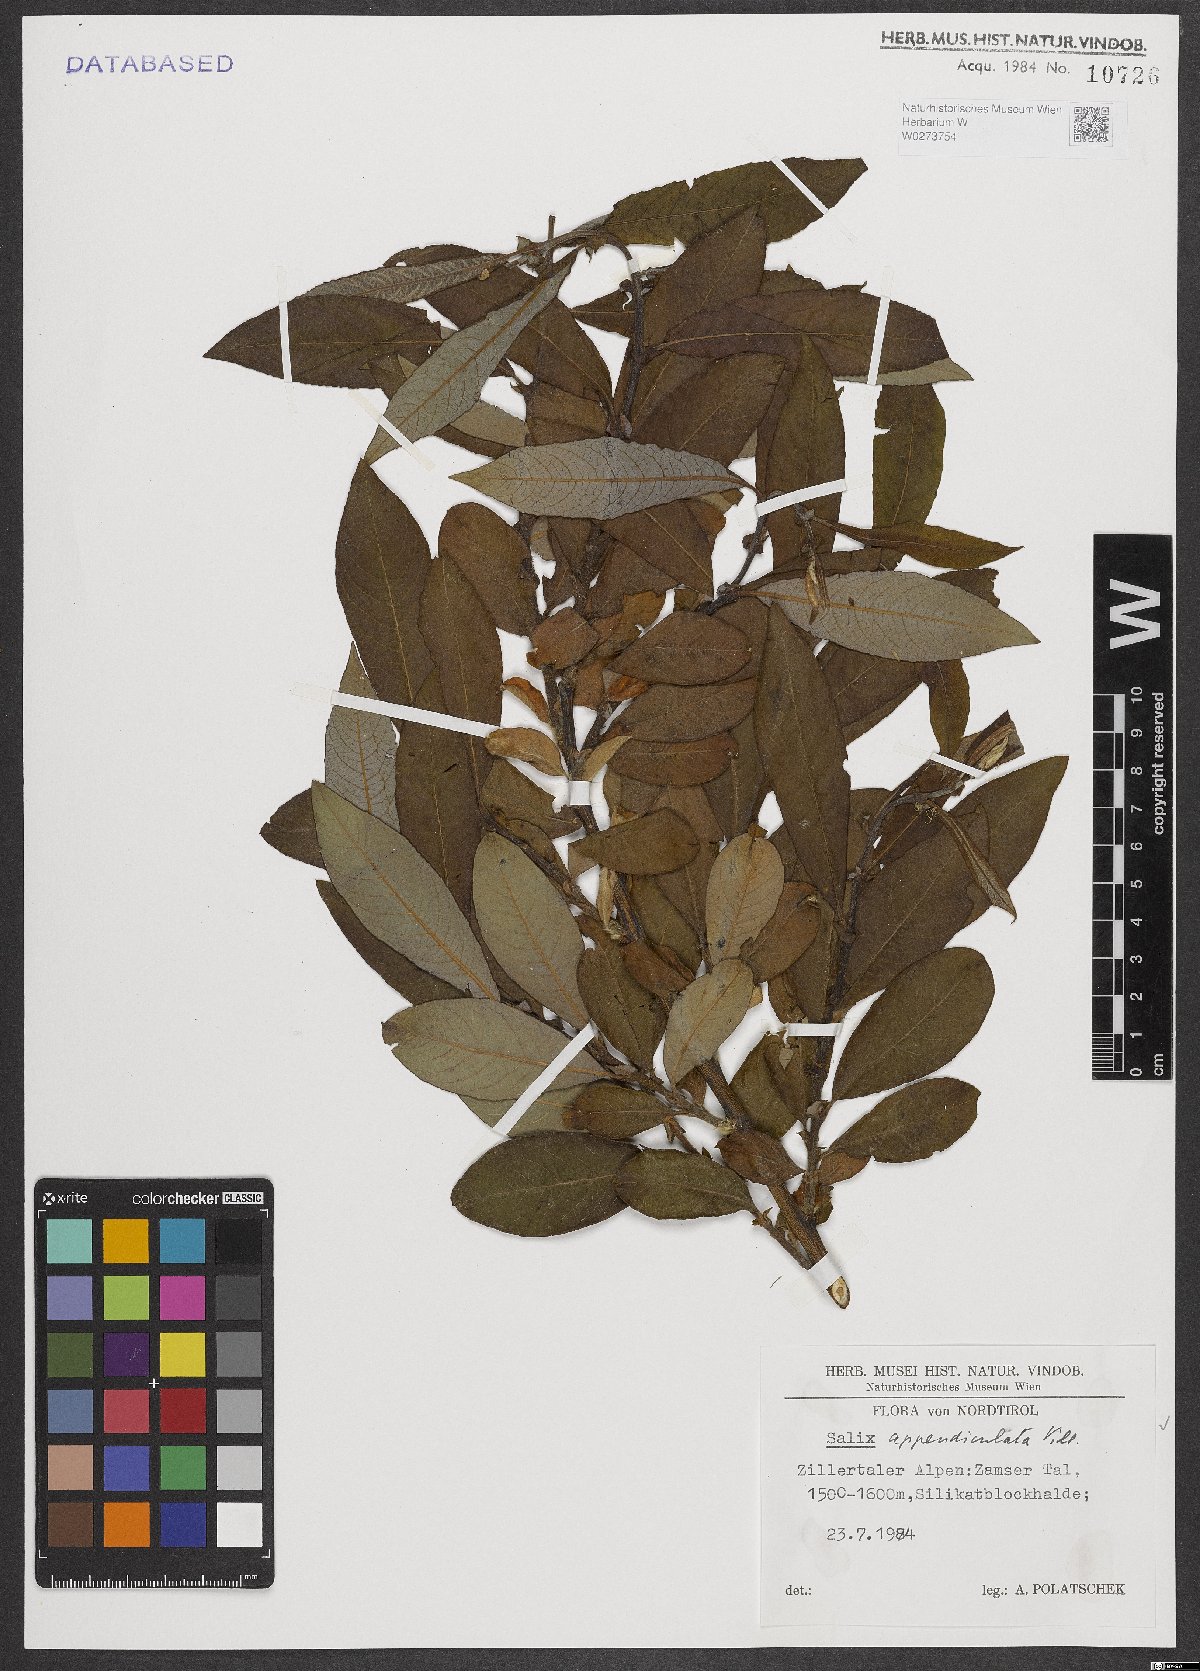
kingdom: Plantae
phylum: Tracheophyta
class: Magnoliopsida
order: Malpighiales
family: Salicaceae
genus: Salix
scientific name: Salix appendiculata
